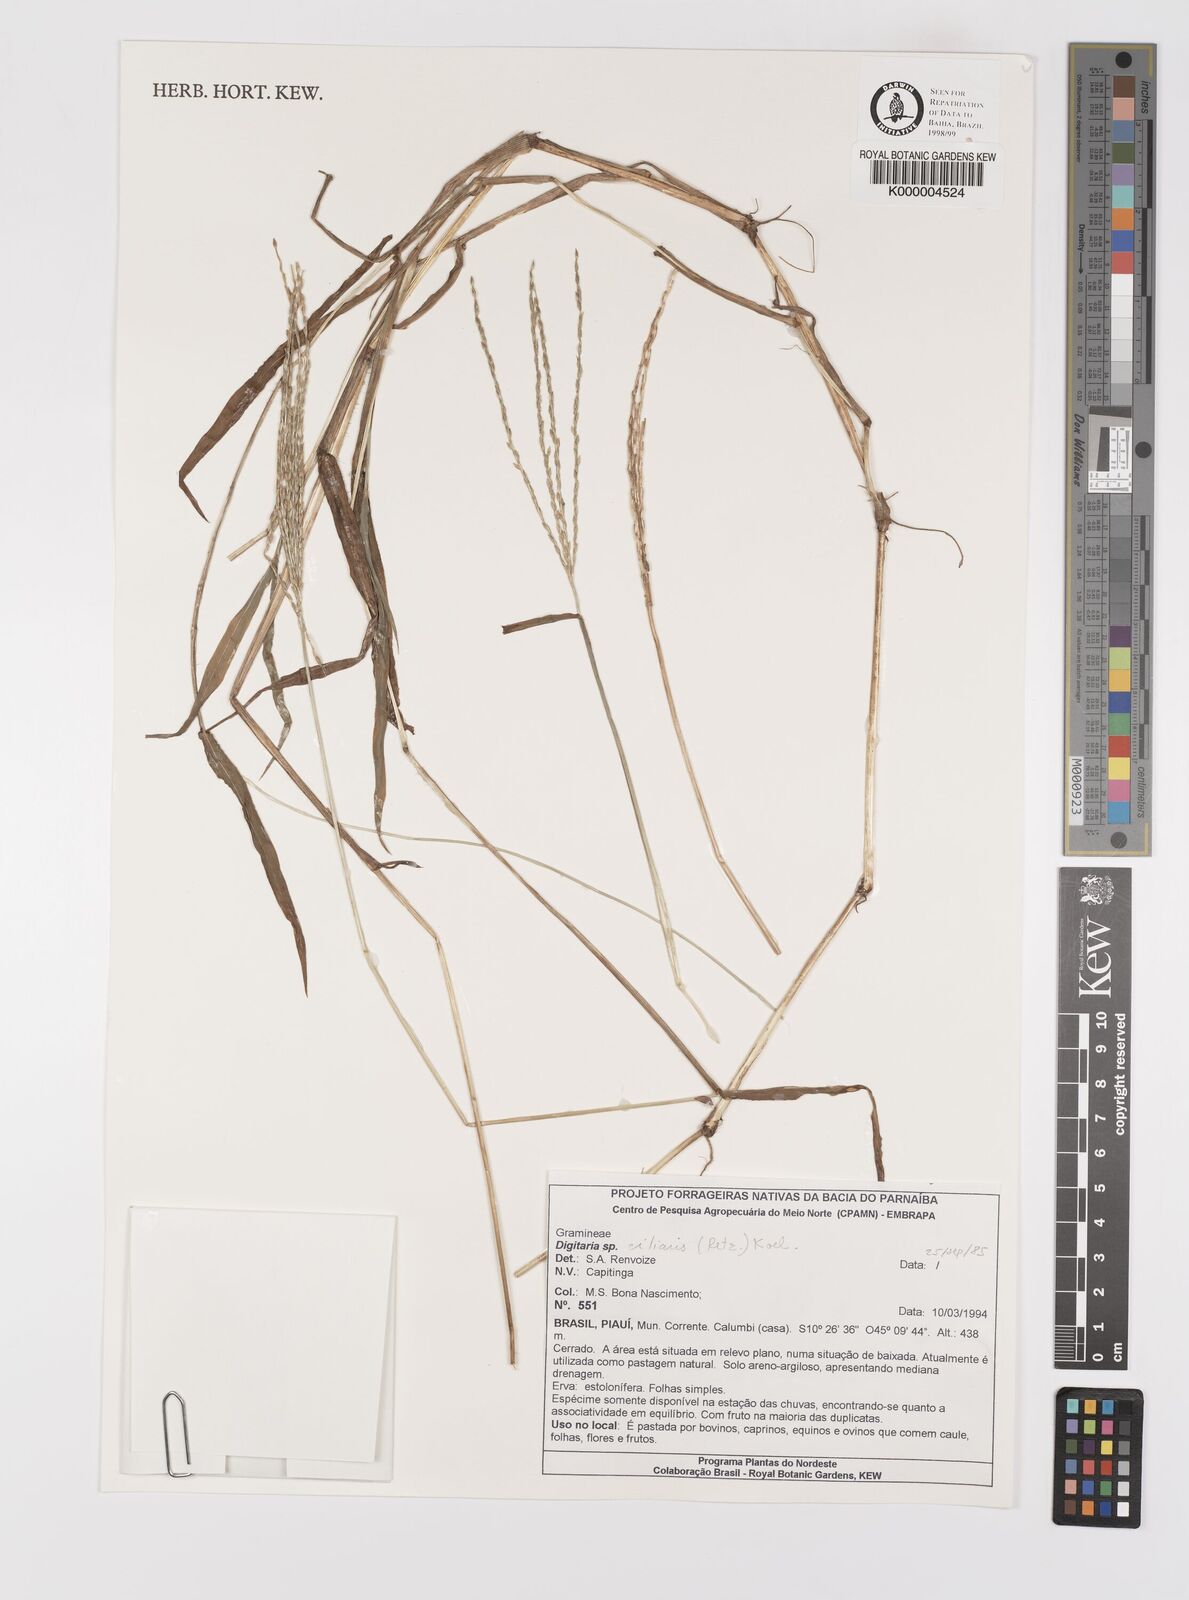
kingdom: Plantae
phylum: Tracheophyta
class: Liliopsida
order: Poales
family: Poaceae
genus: Digitaria
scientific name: Digitaria ciliaris
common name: Tropical finger-grass
